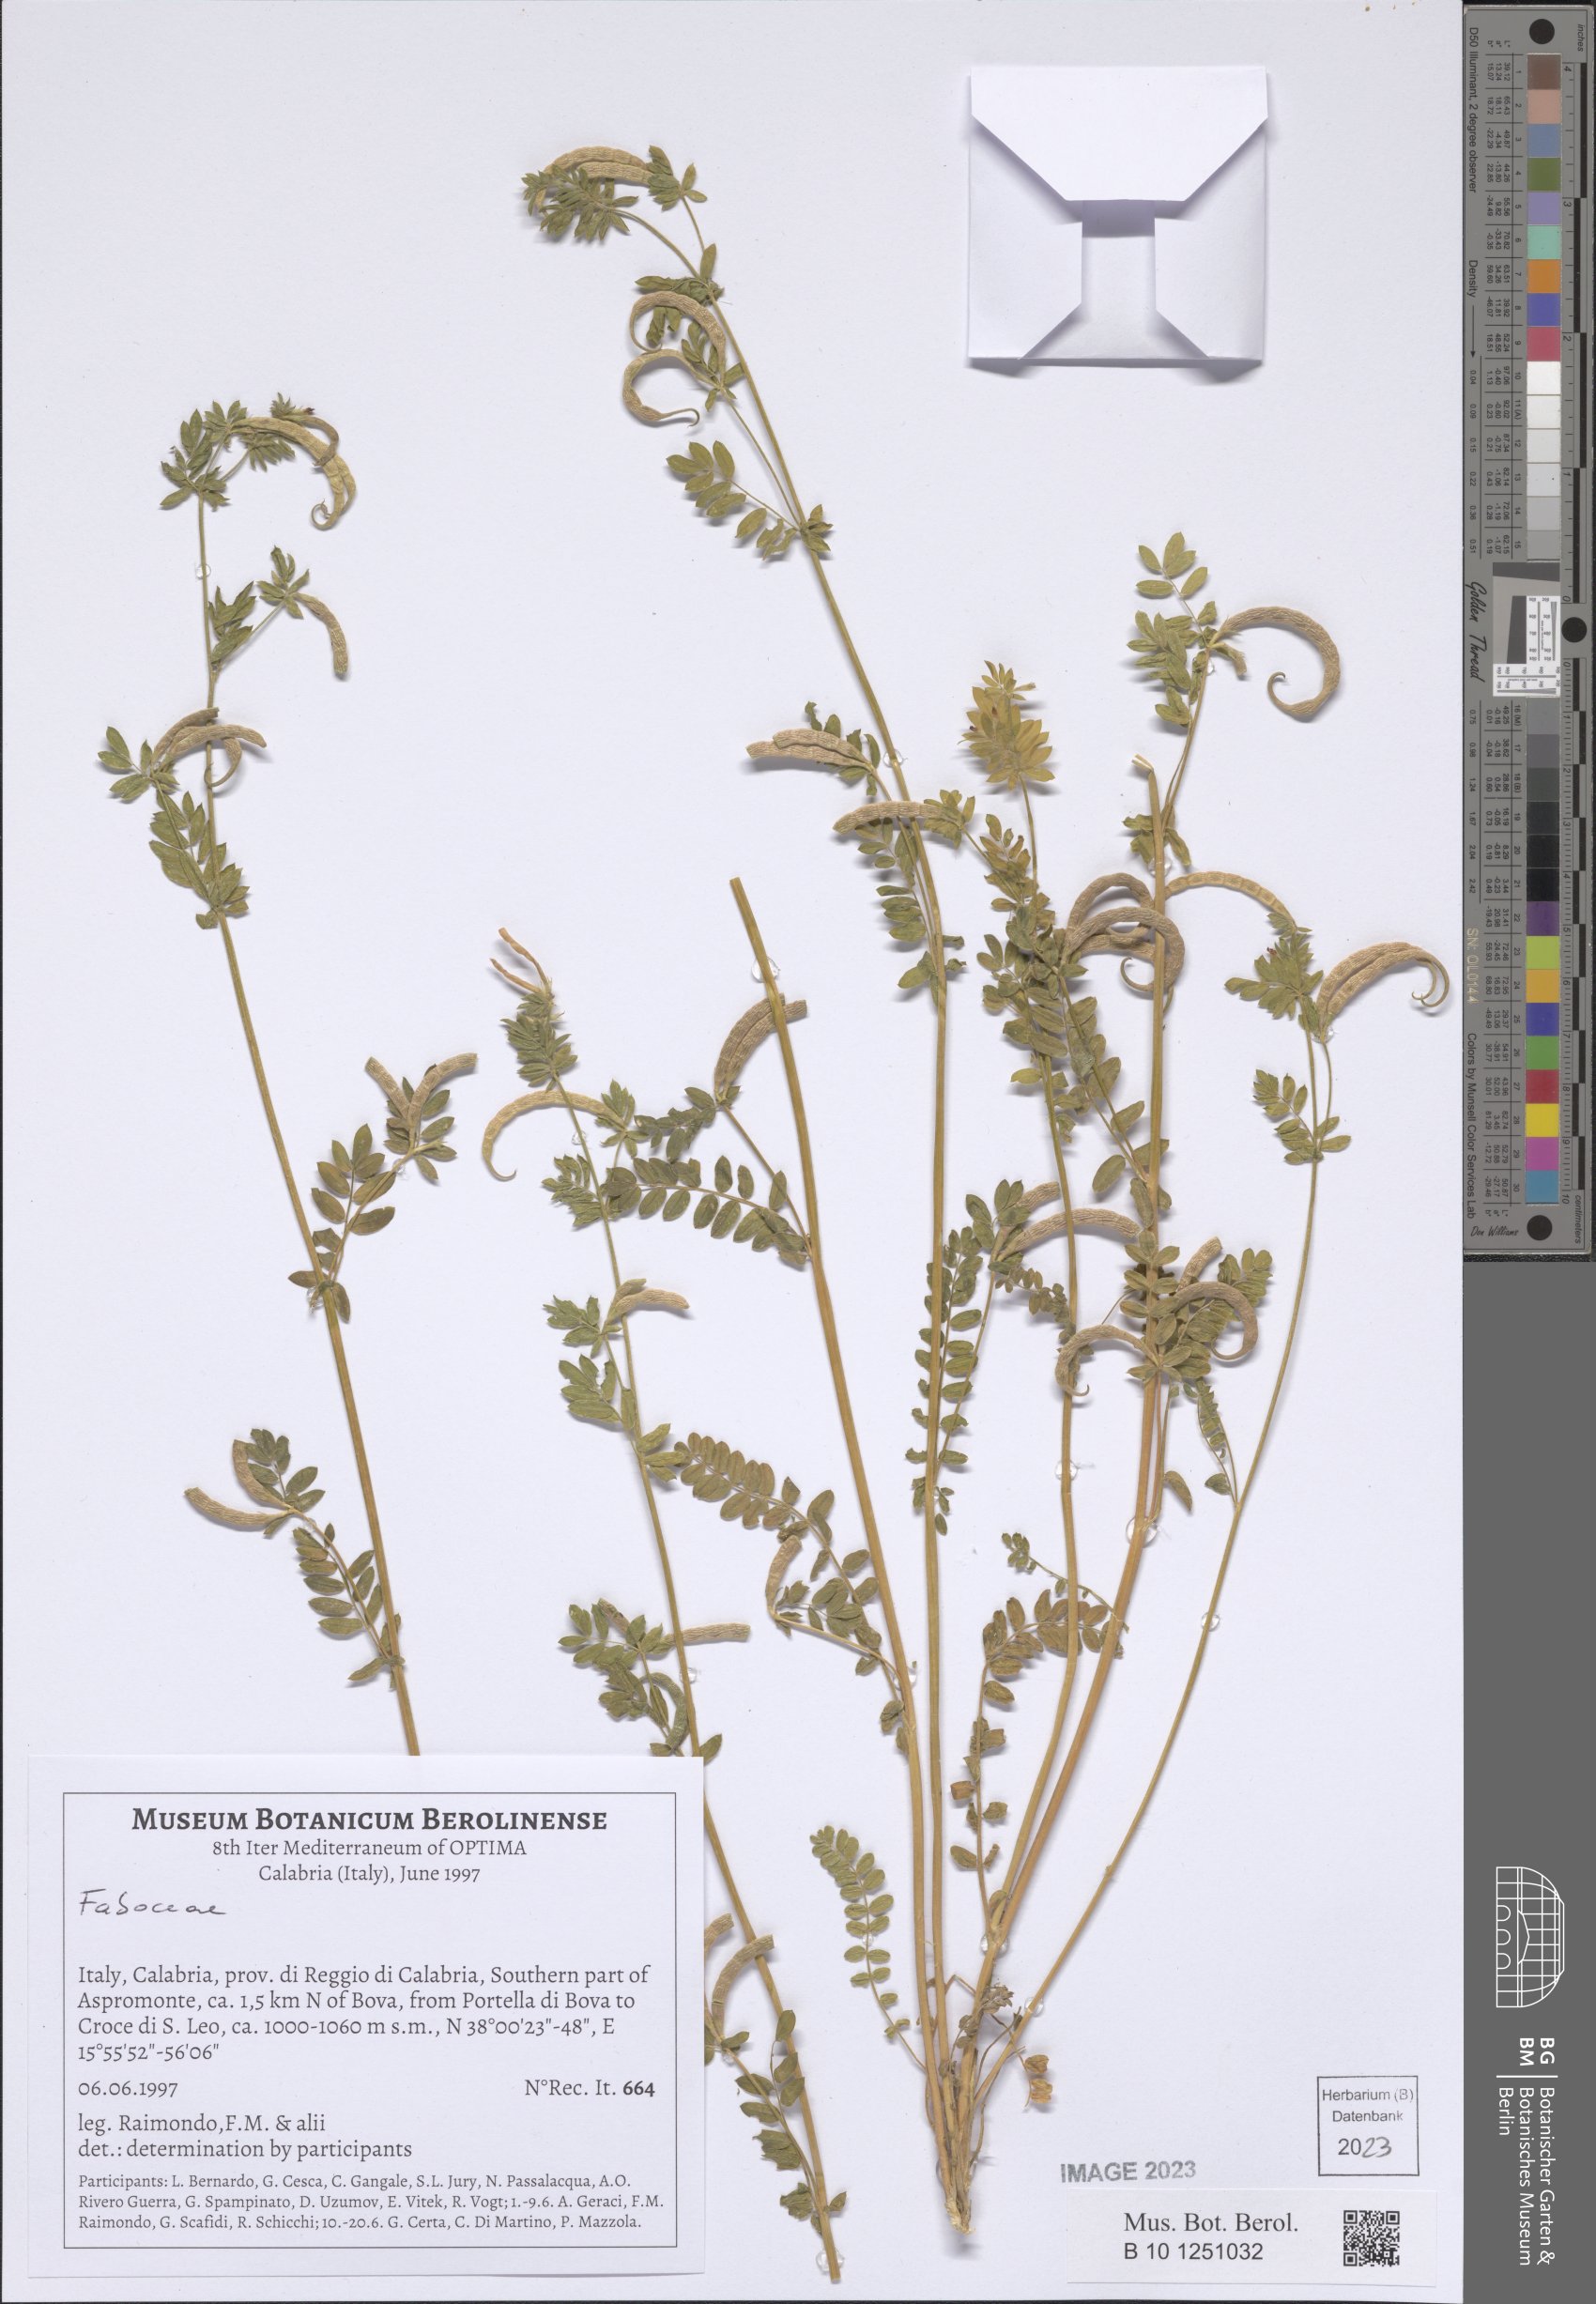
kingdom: Plantae
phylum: Tracheophyta
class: Magnoliopsida
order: Fabales
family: Fabaceae
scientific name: Fabaceae
